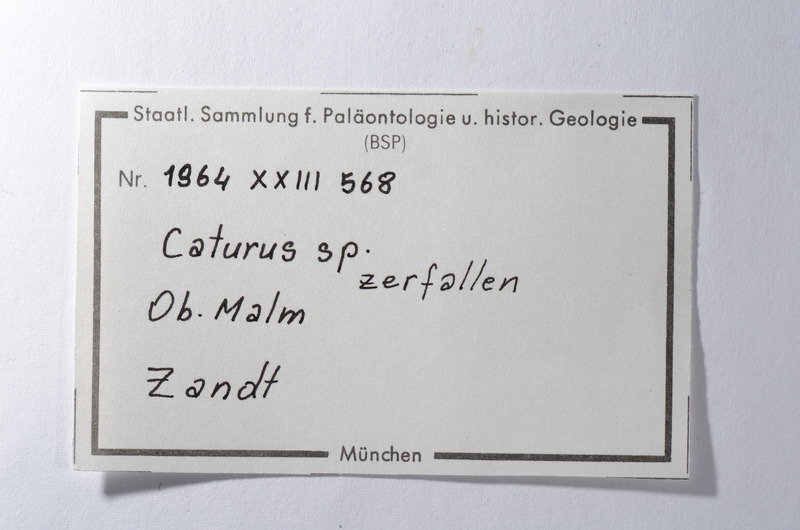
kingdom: Animalia
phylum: Chordata
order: Amiiformes
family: Caturidae
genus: Caturus
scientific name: Caturus
